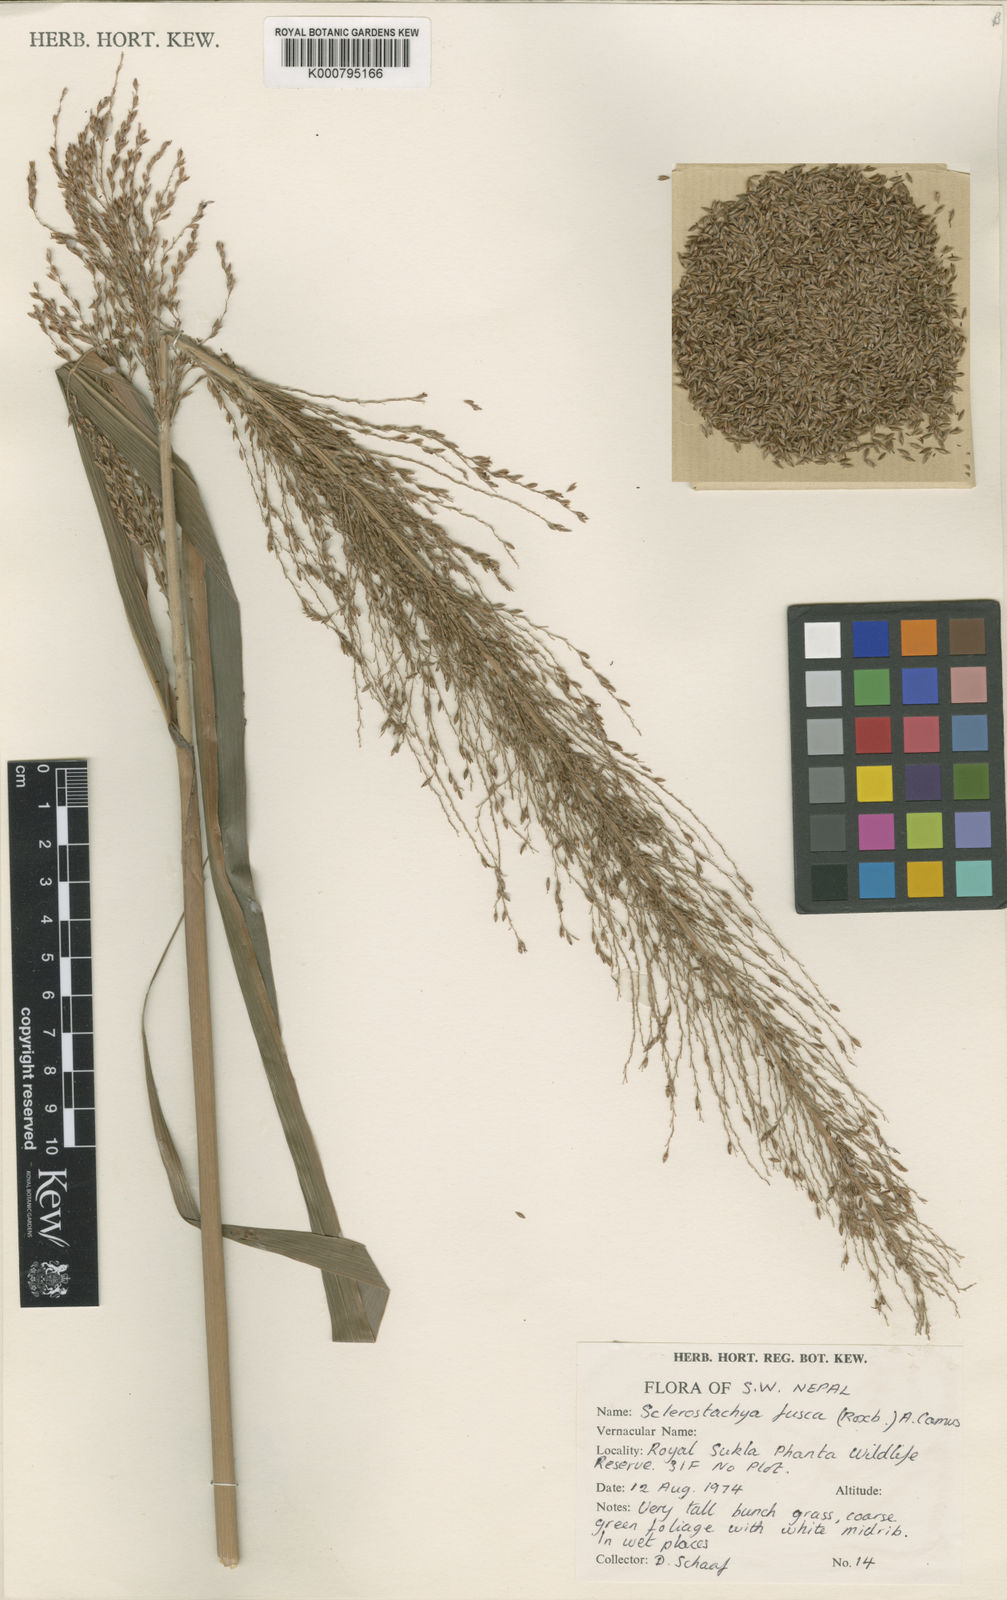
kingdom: Plantae
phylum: Tracheophyta
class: Liliopsida
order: Poales
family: Poaceae
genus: Miscanthus
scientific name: Miscanthus fuscus
